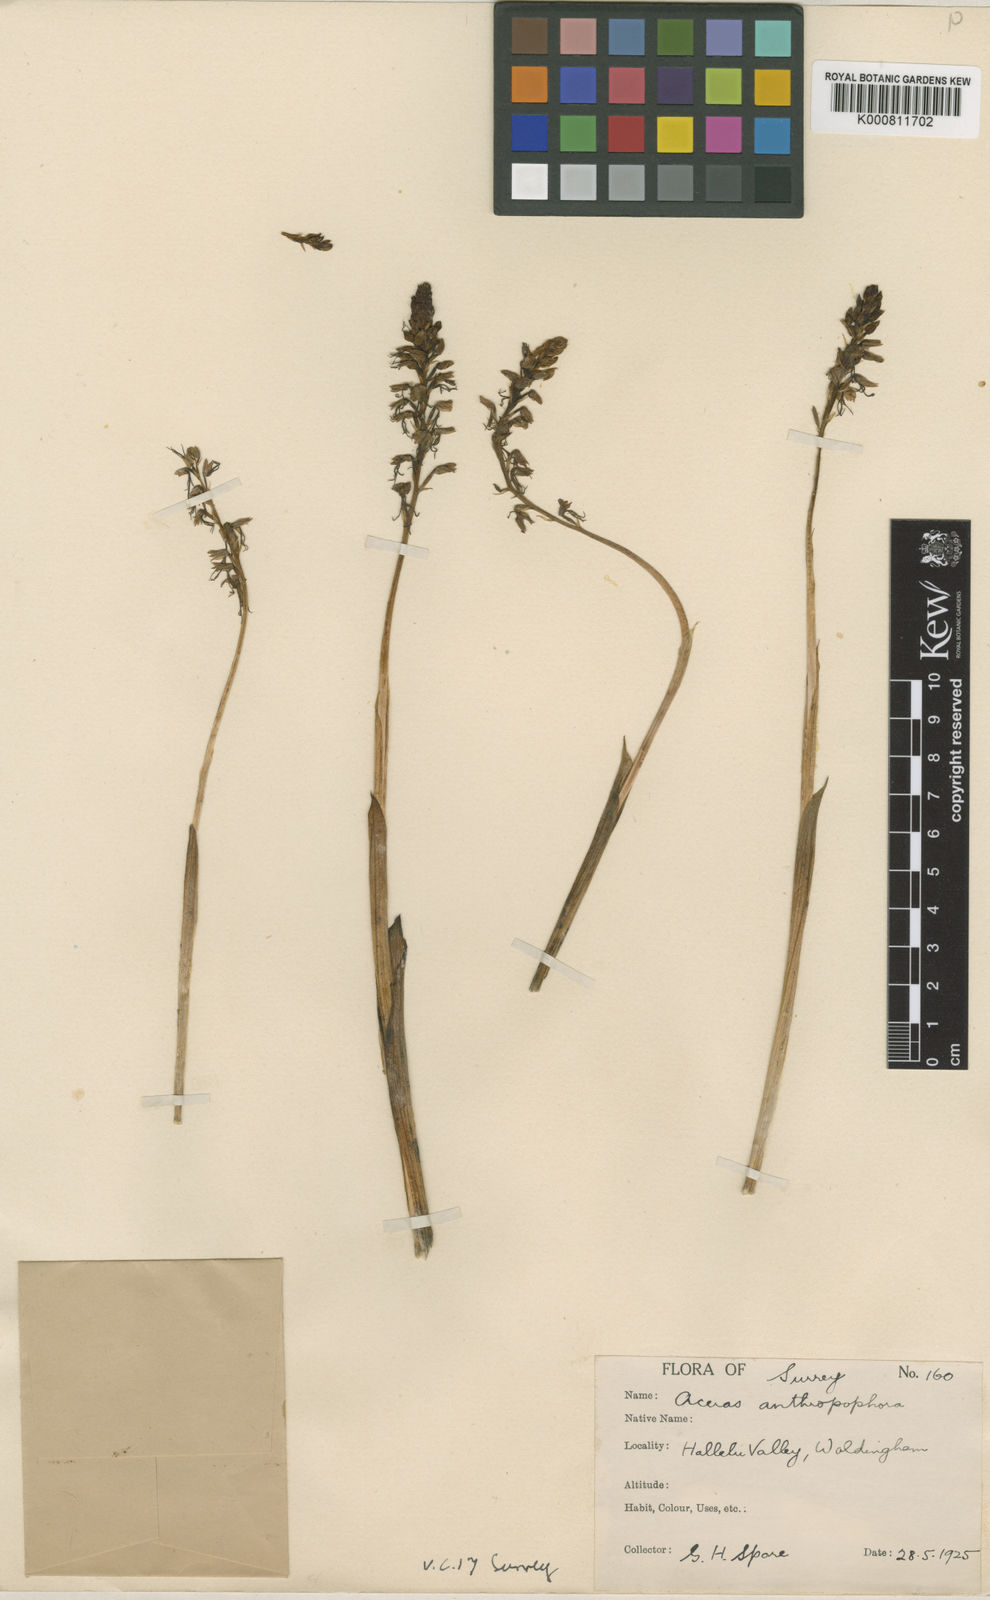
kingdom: Plantae
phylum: Tracheophyta
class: Liliopsida
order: Asparagales
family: Orchidaceae
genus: Orchis
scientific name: Orchis
